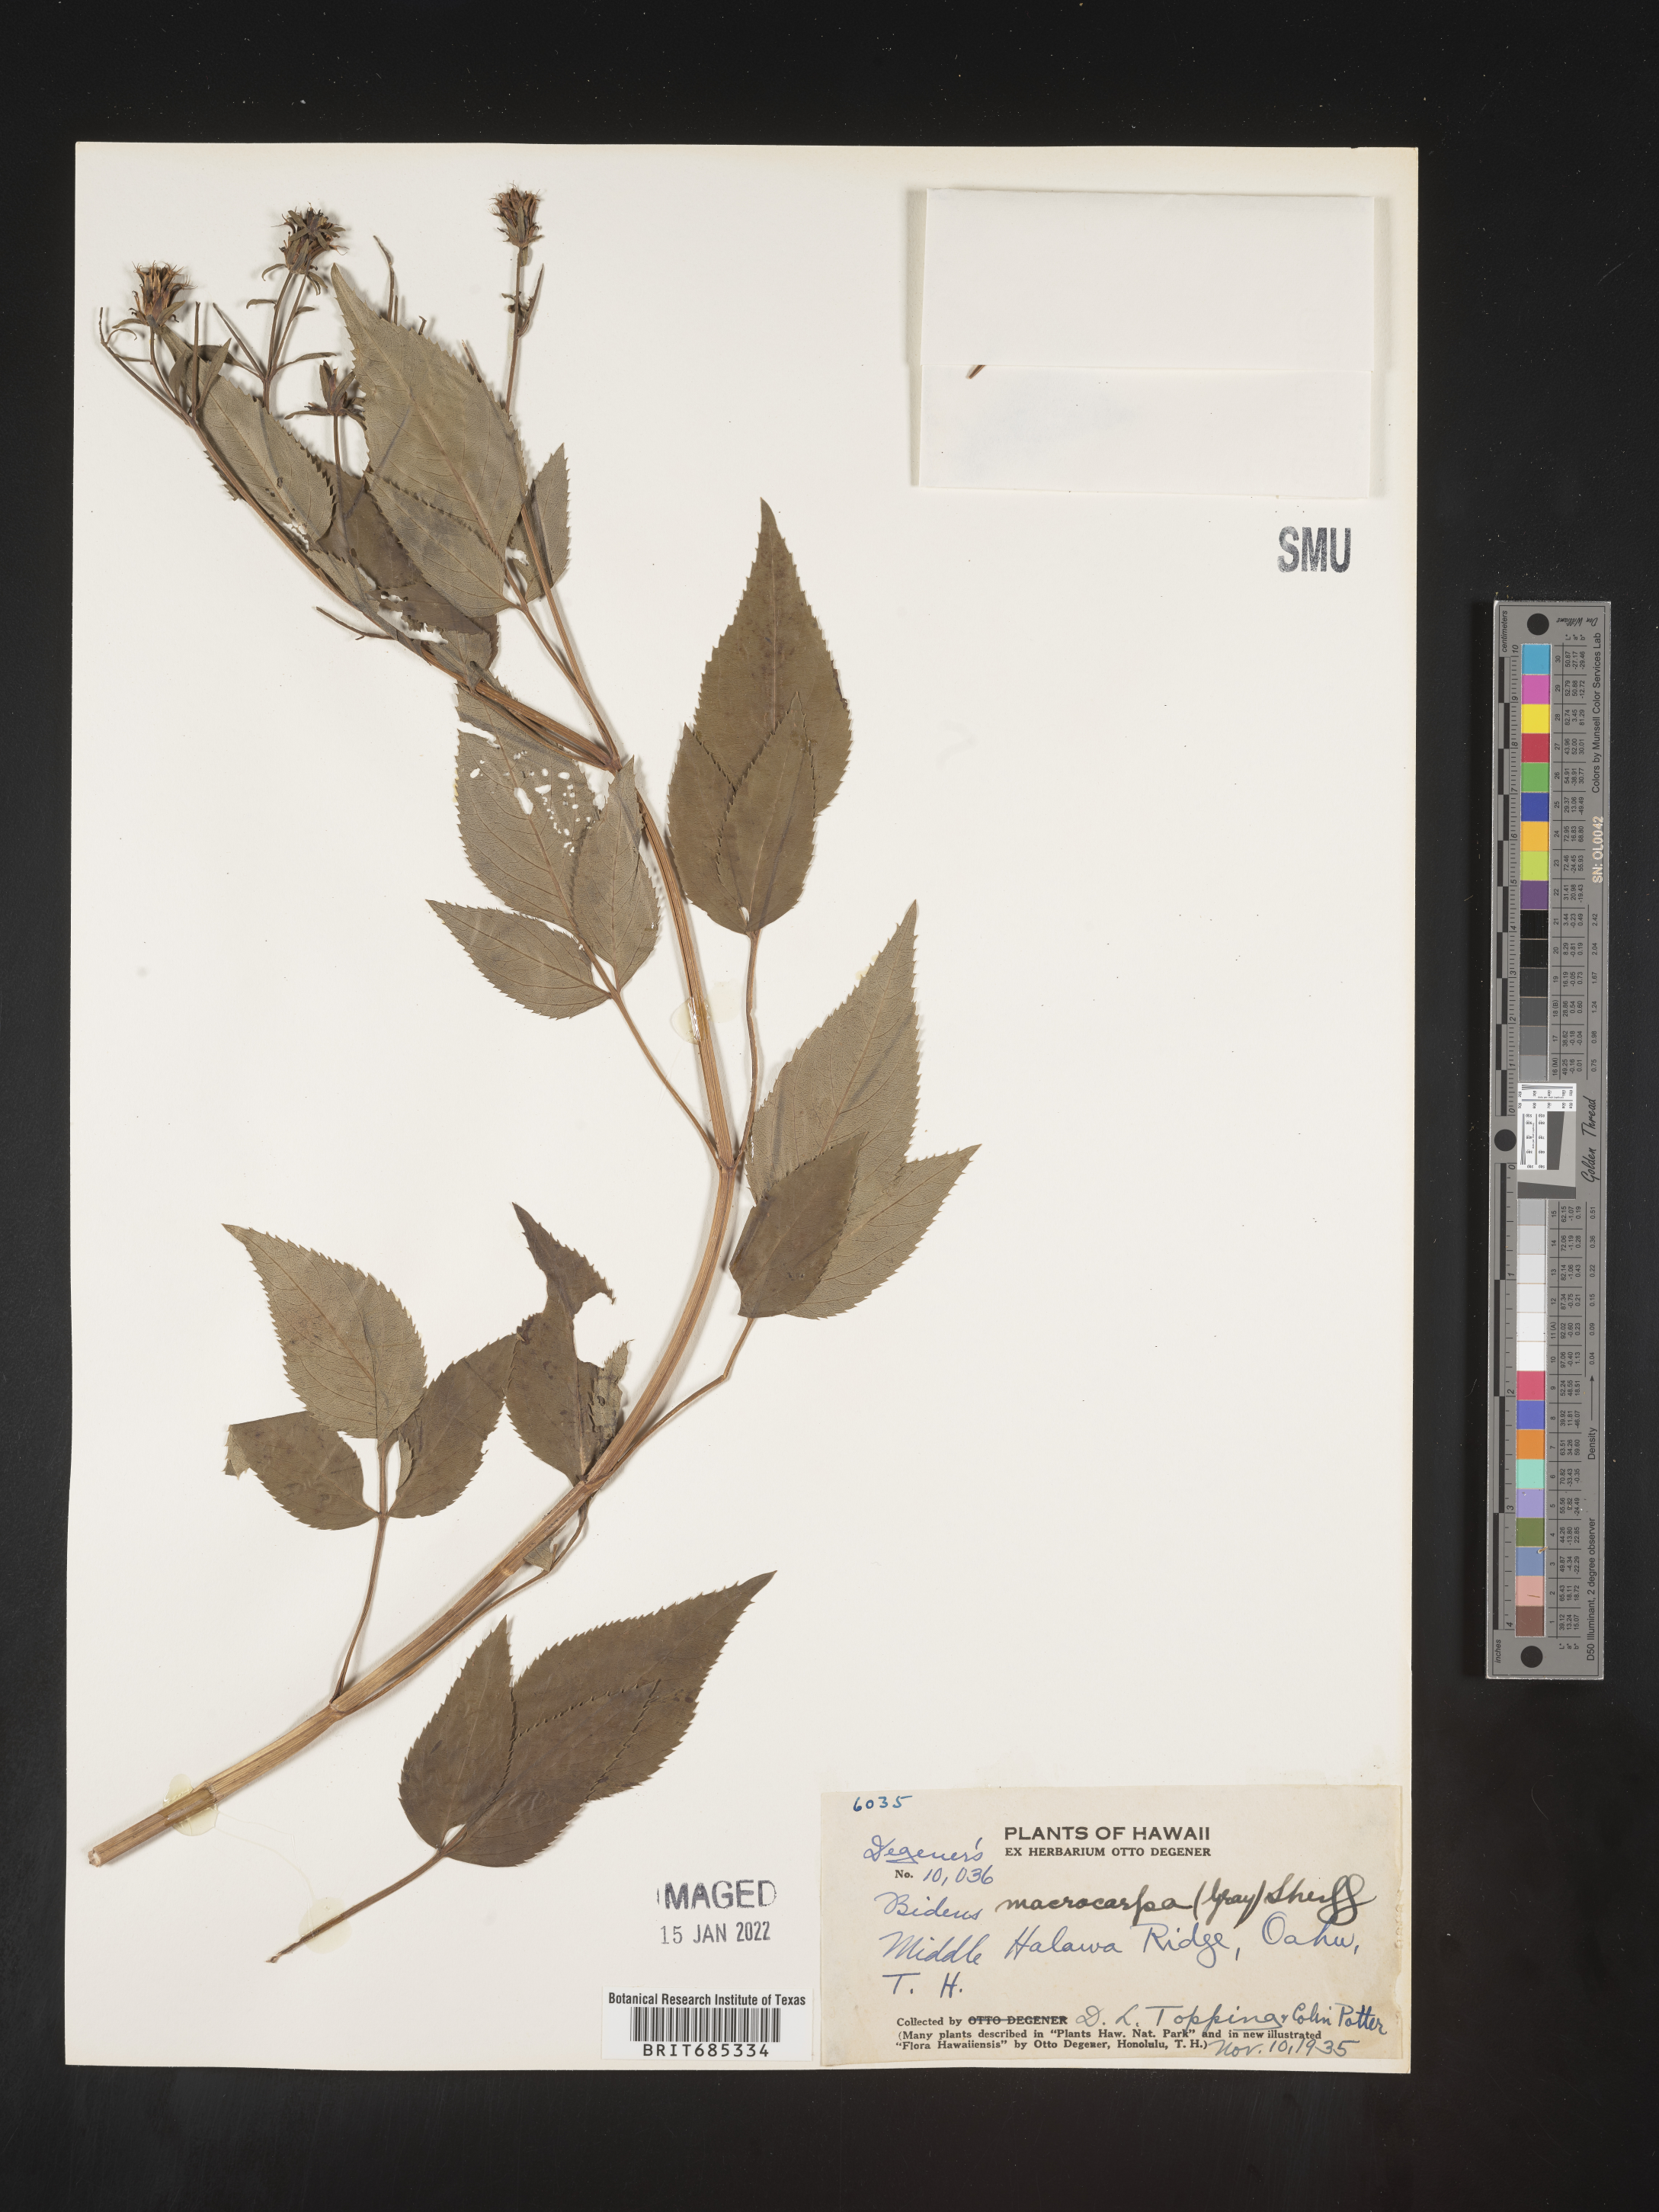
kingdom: Plantae
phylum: Tracheophyta
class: Magnoliopsida
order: Asterales
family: Asteraceae
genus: Bidens
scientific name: Bidens
